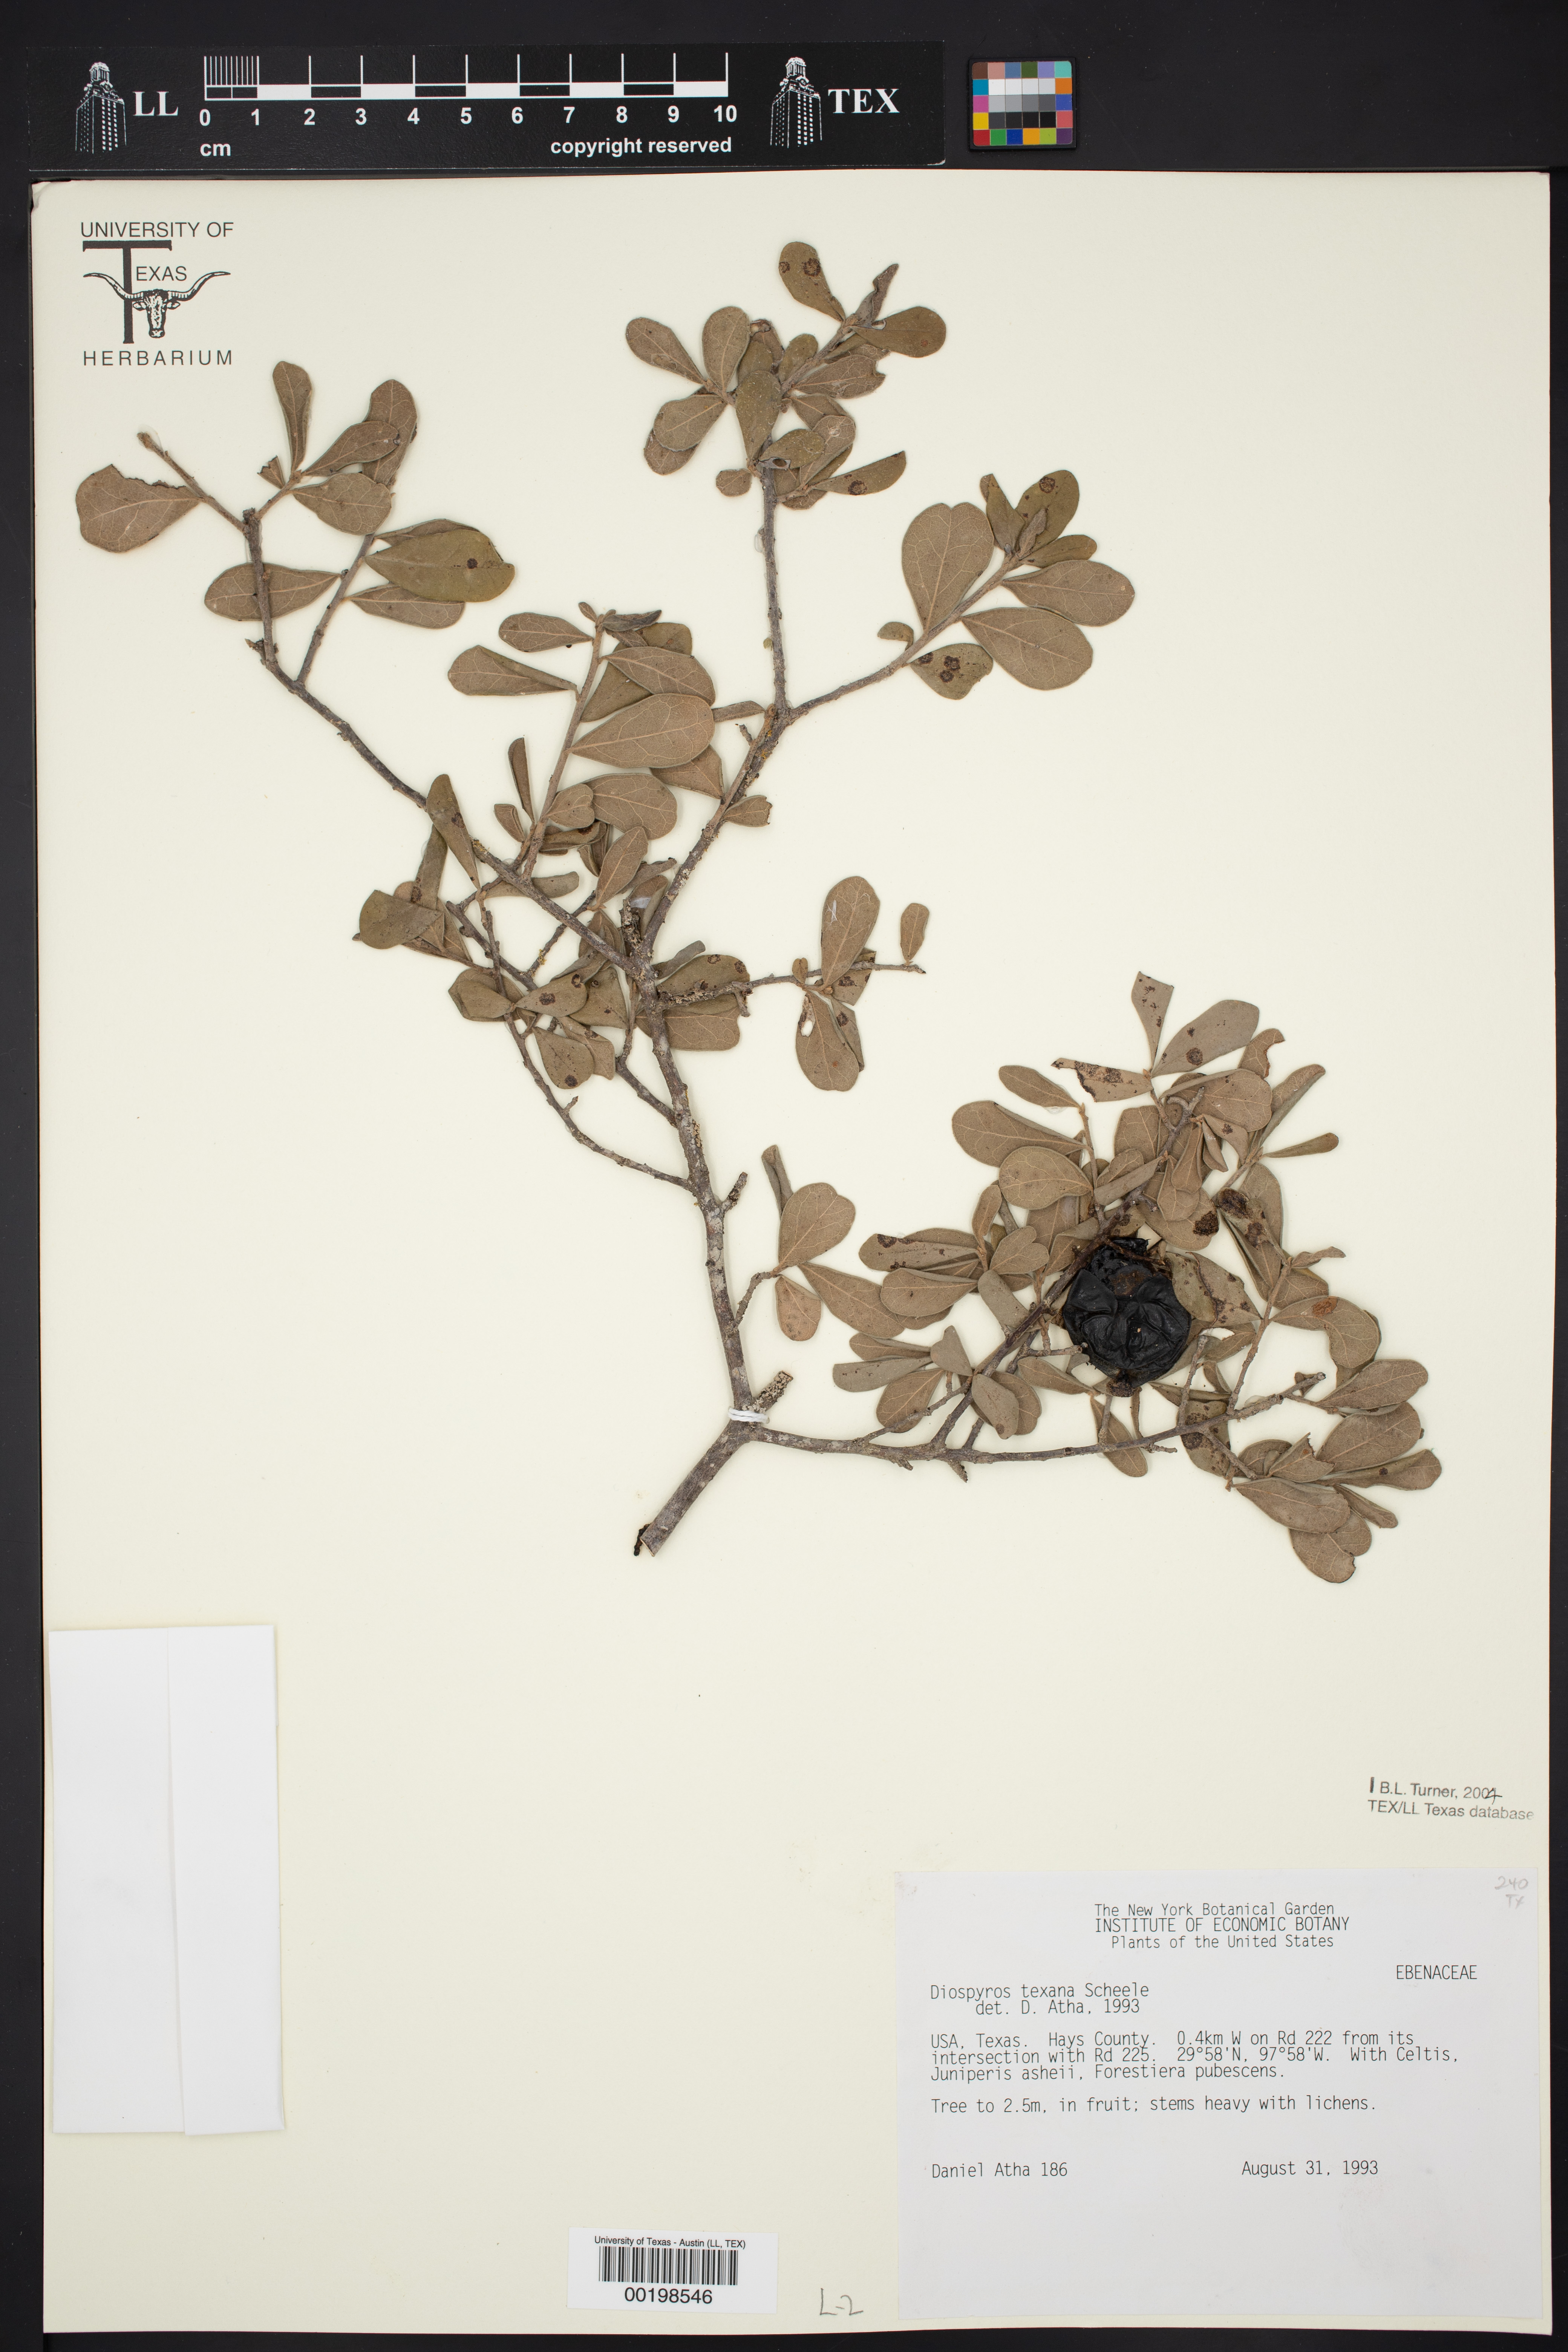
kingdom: Plantae
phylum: Tracheophyta
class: Magnoliopsida
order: Ericales
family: Ebenaceae
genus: Diospyros
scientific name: Diospyros texana
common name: Texas persimmon
